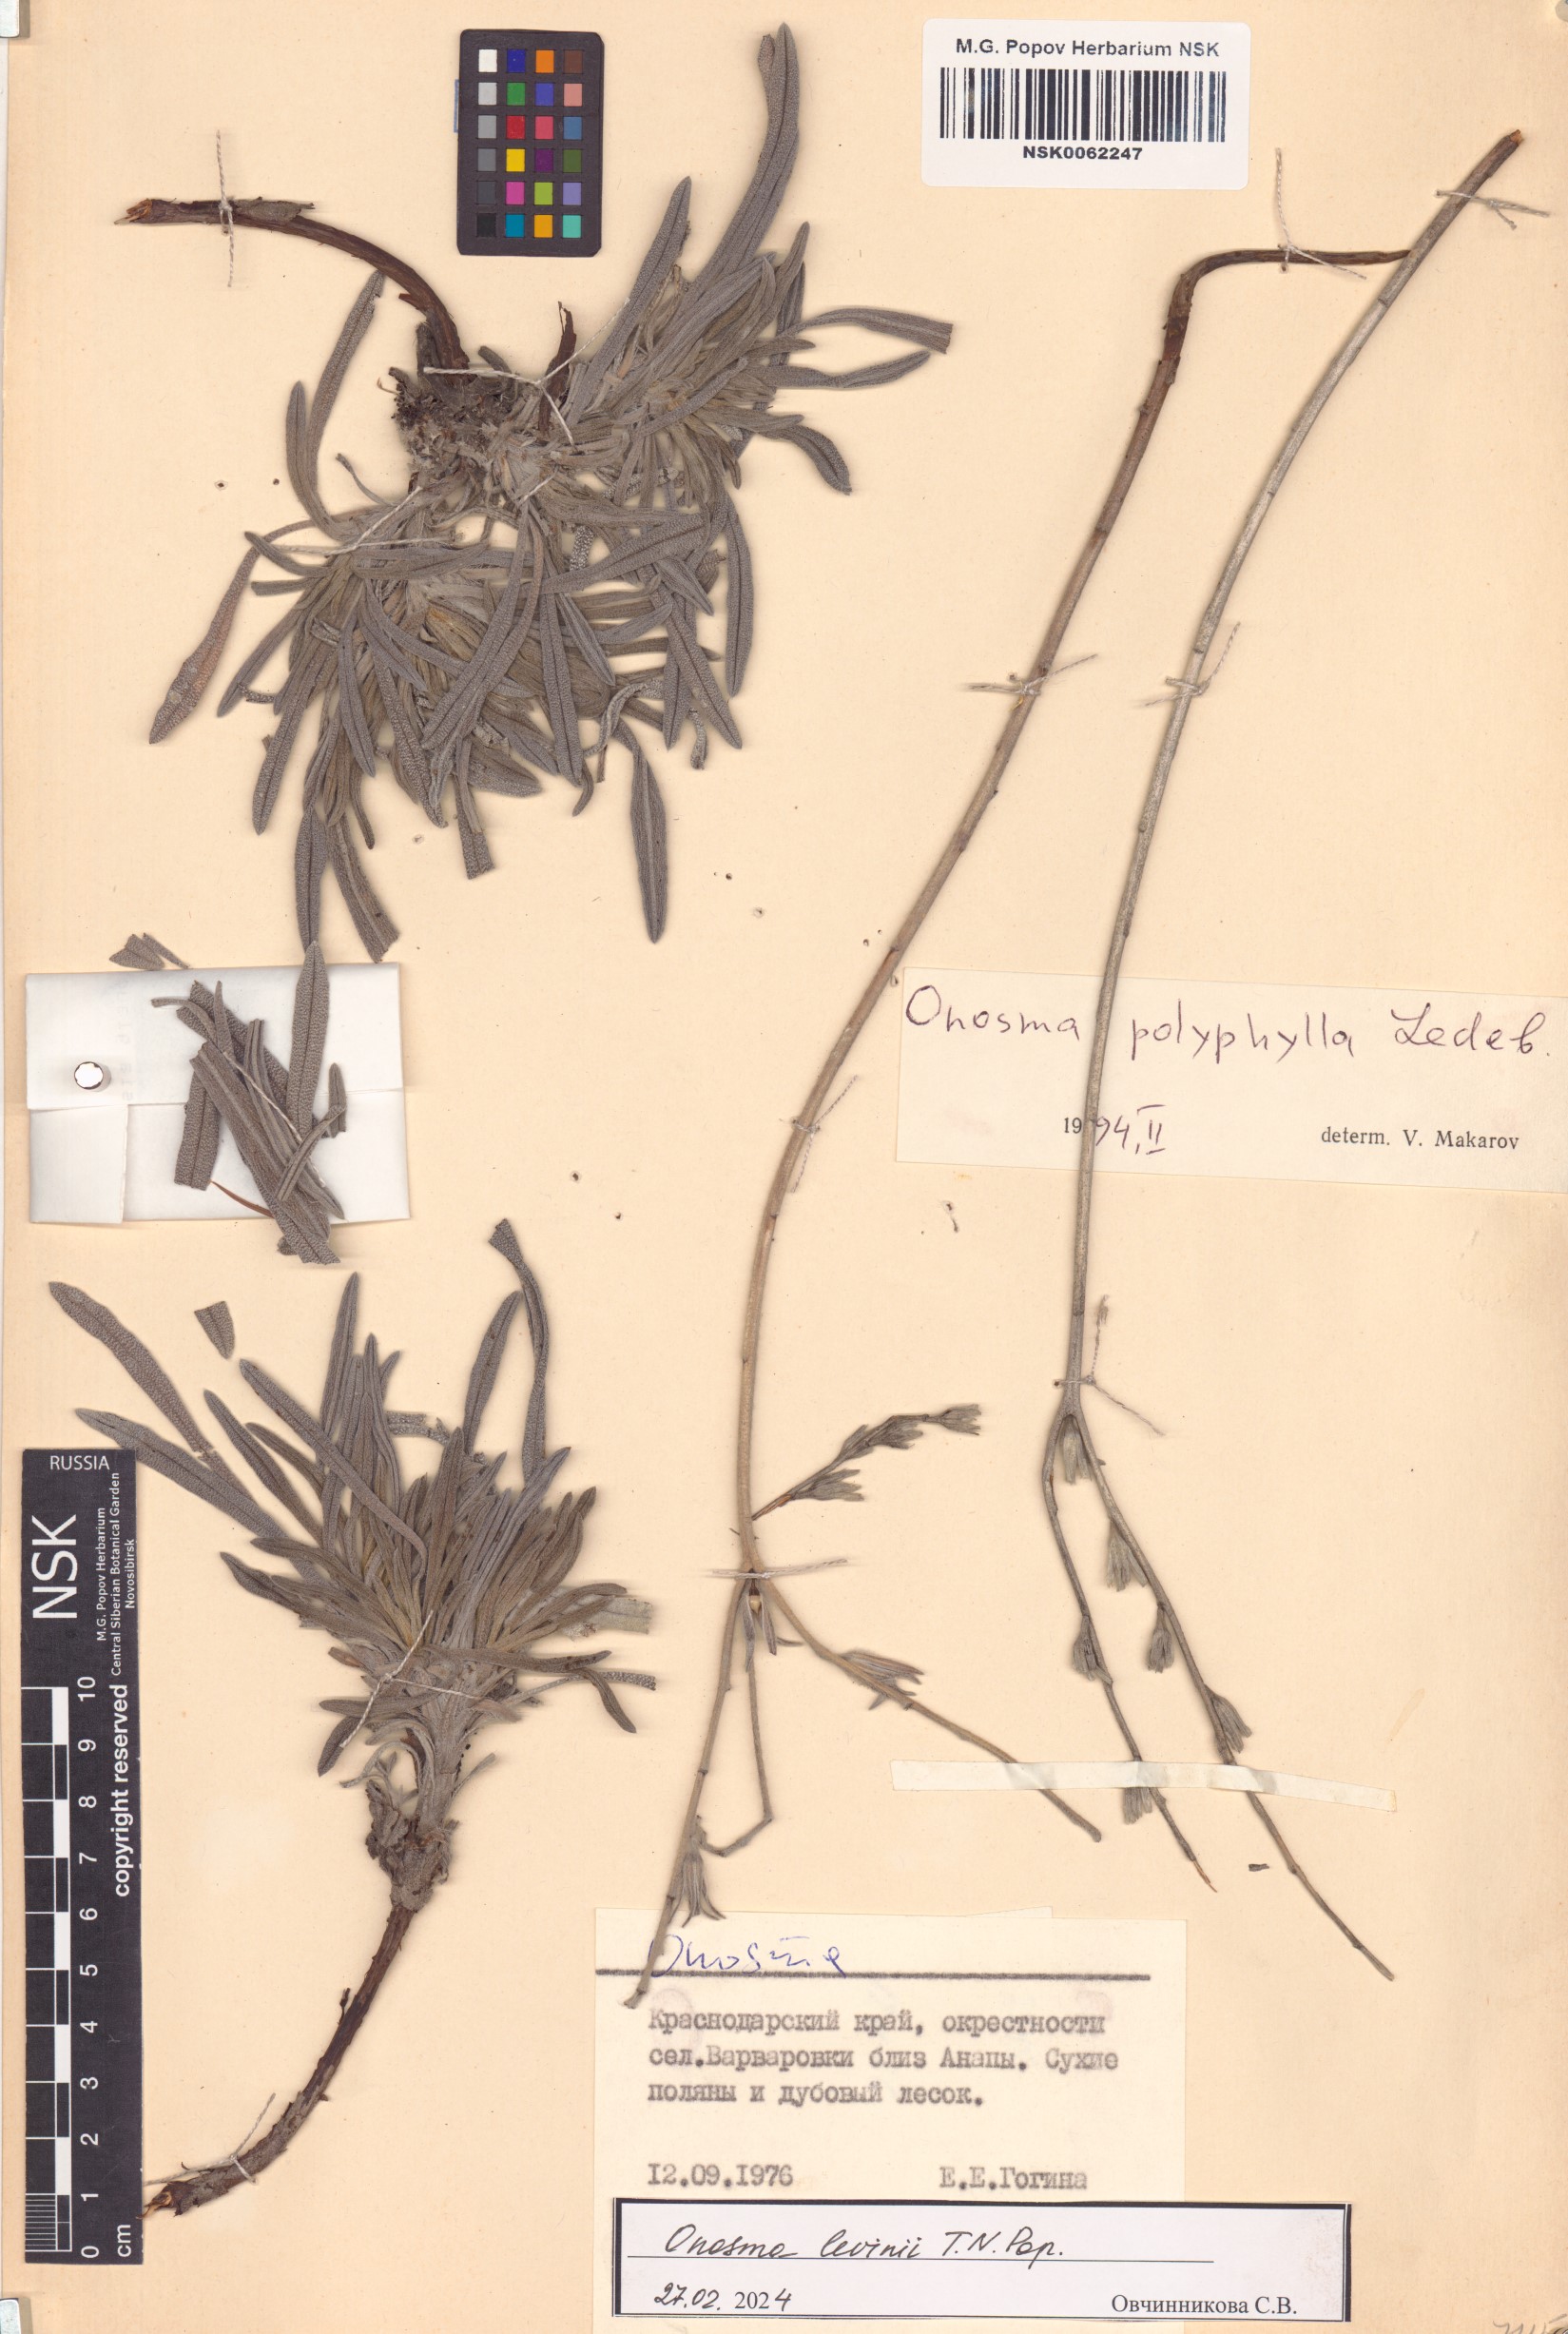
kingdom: Plantae
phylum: Tracheophyta
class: Magnoliopsida
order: Boraginales
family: Boraginaceae
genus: Onosma
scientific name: Onosma polyphylla
